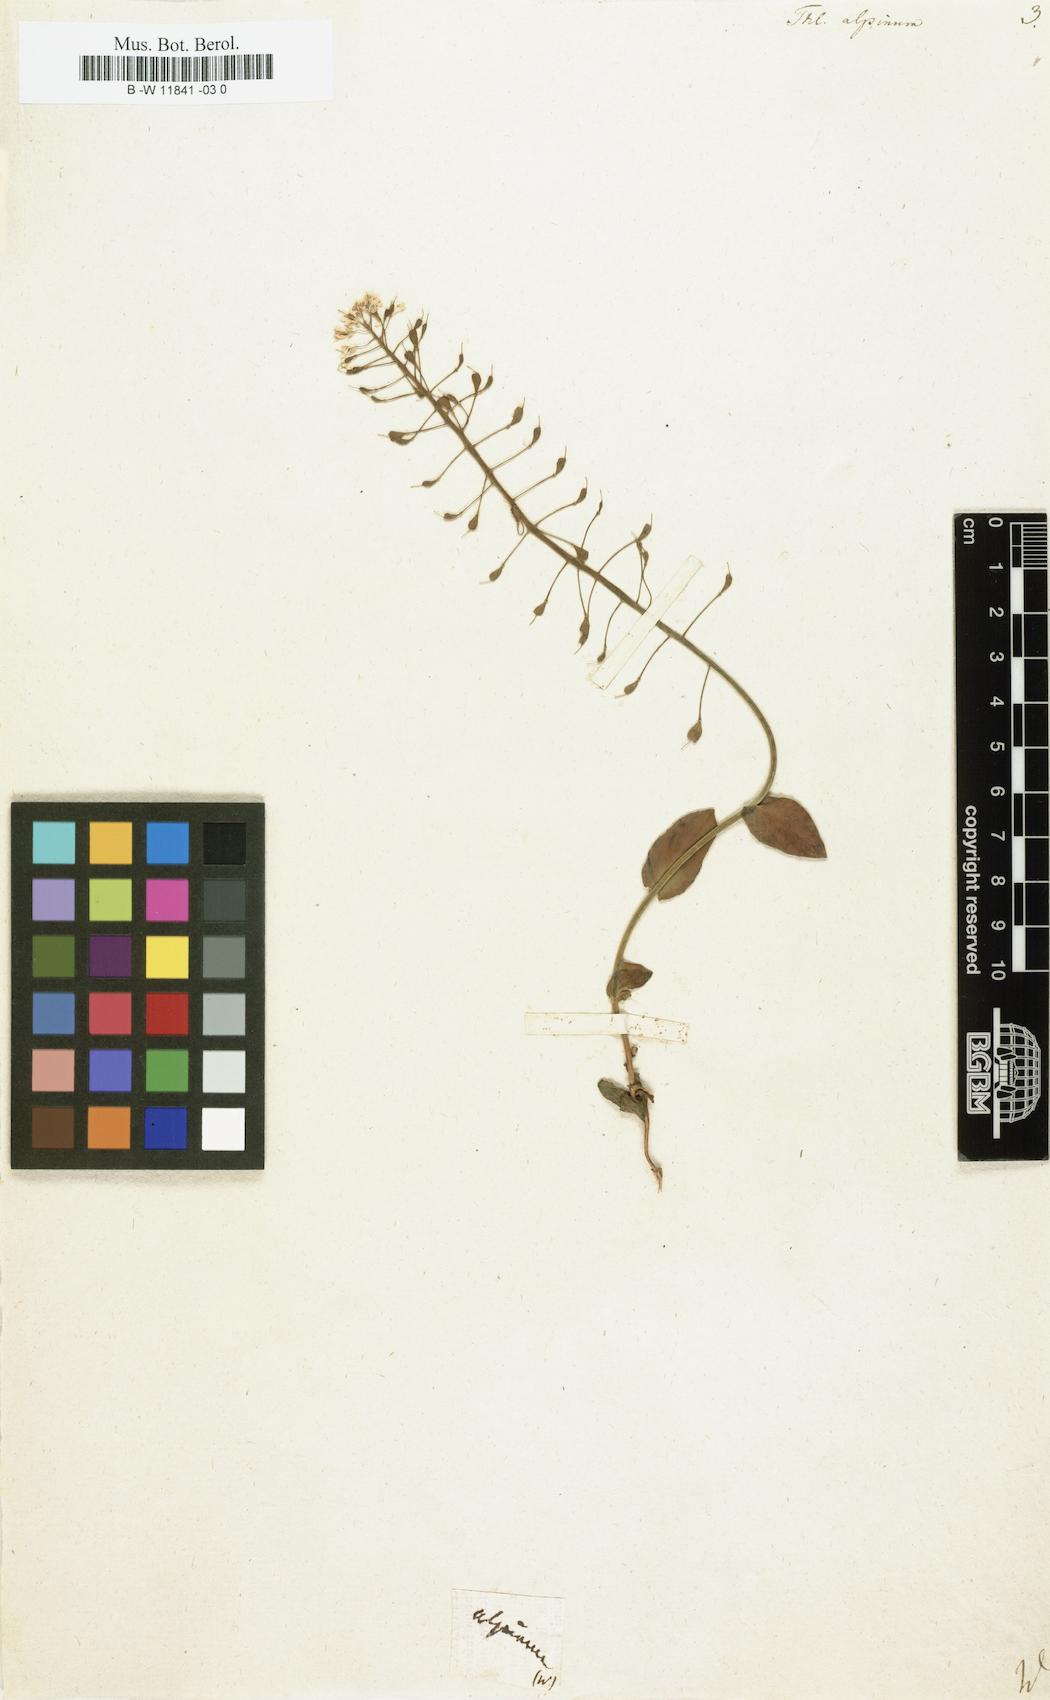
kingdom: Plantae
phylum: Tracheophyta
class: Magnoliopsida
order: Brassicales
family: Brassicaceae
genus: Noccaea
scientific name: Noccaea
